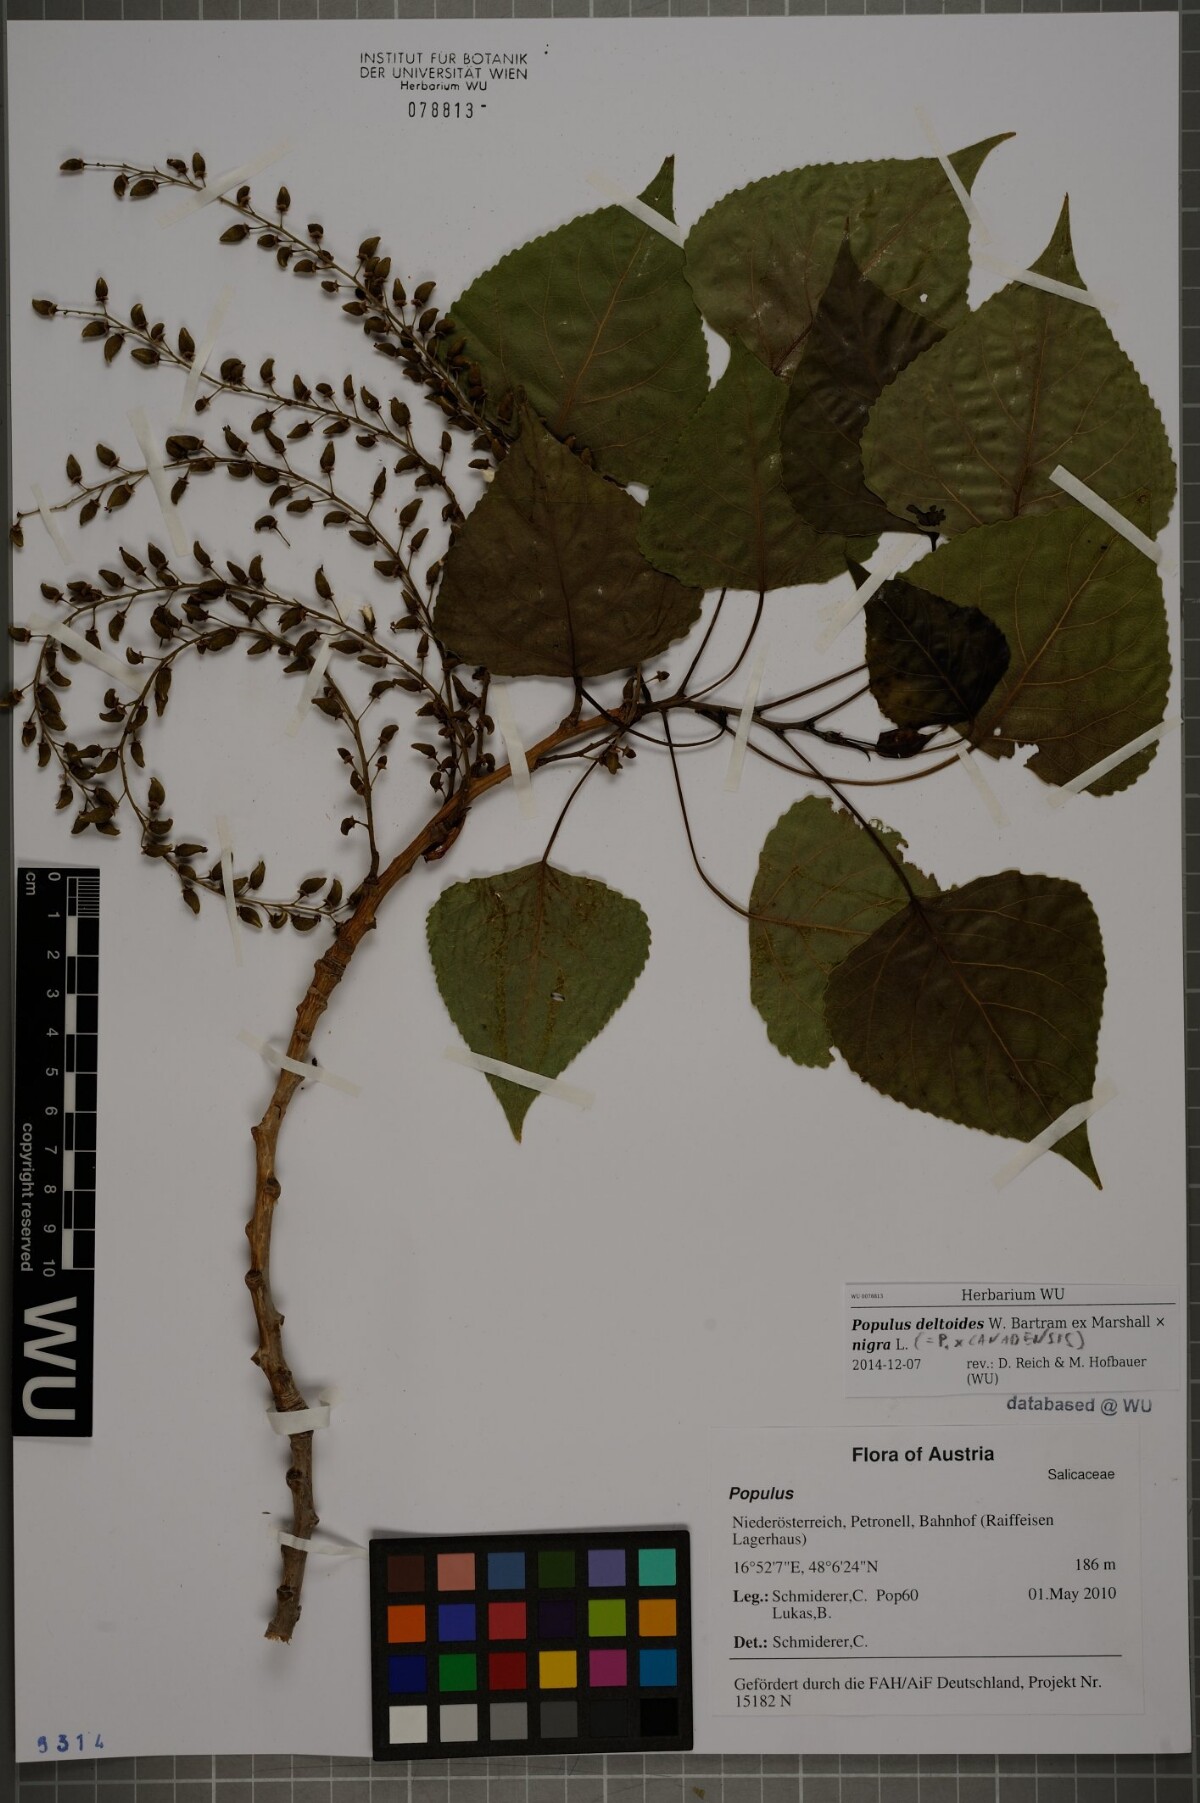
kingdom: Plantae
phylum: Tracheophyta
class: Magnoliopsida
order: Malpighiales
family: Salicaceae
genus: Populus
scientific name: Populus canadensis
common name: Carolina poplar
